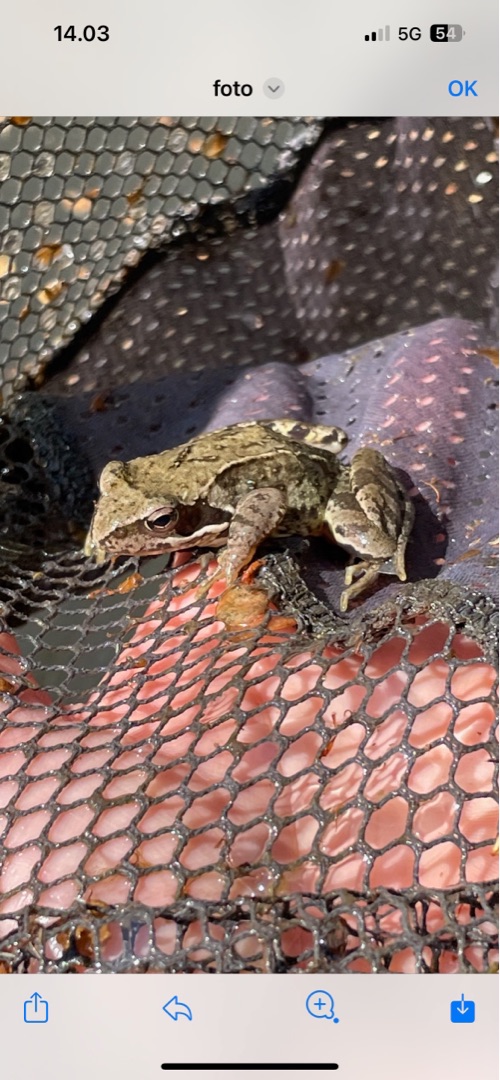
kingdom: Animalia
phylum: Chordata
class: Amphibia
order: Anura
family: Ranidae
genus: Rana
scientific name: Rana temporaria
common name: Butsnudet frø
